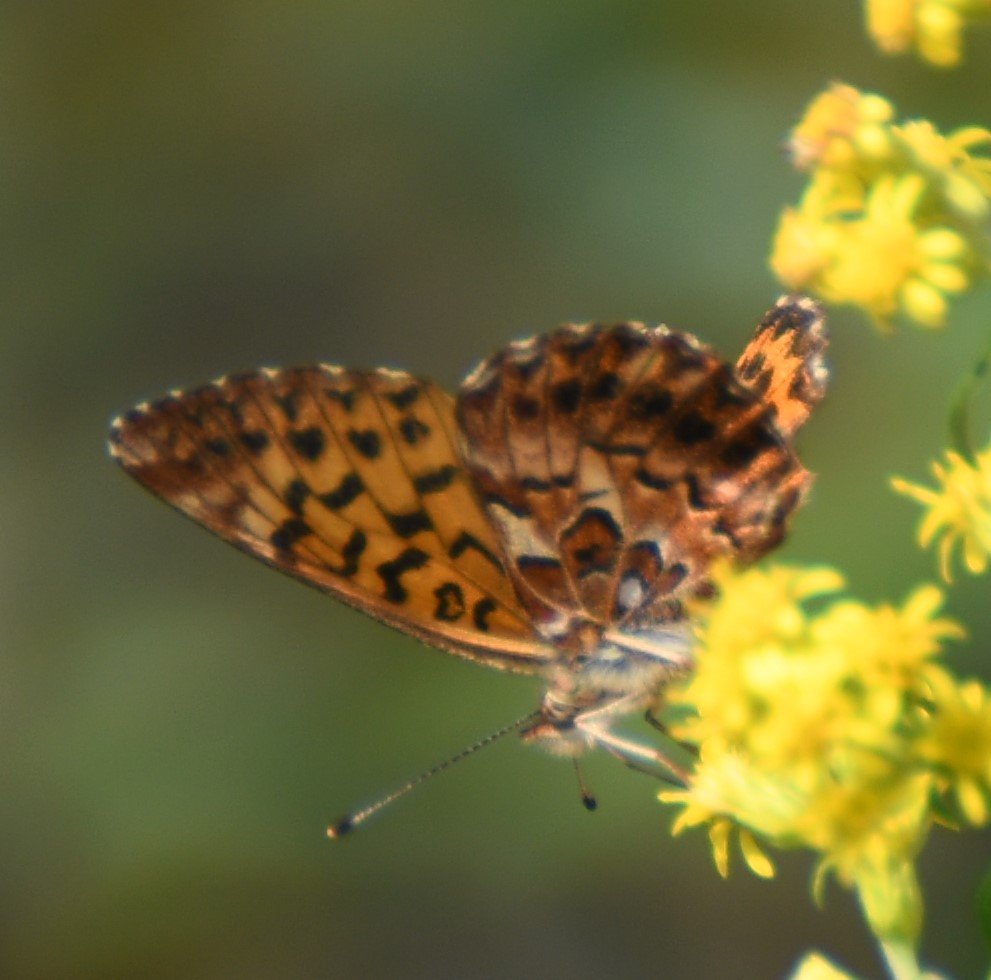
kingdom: Animalia
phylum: Arthropoda
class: Insecta
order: Lepidoptera
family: Nymphalidae
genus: Boloria
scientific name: Boloria chariclea
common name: Arctic Fritillary
